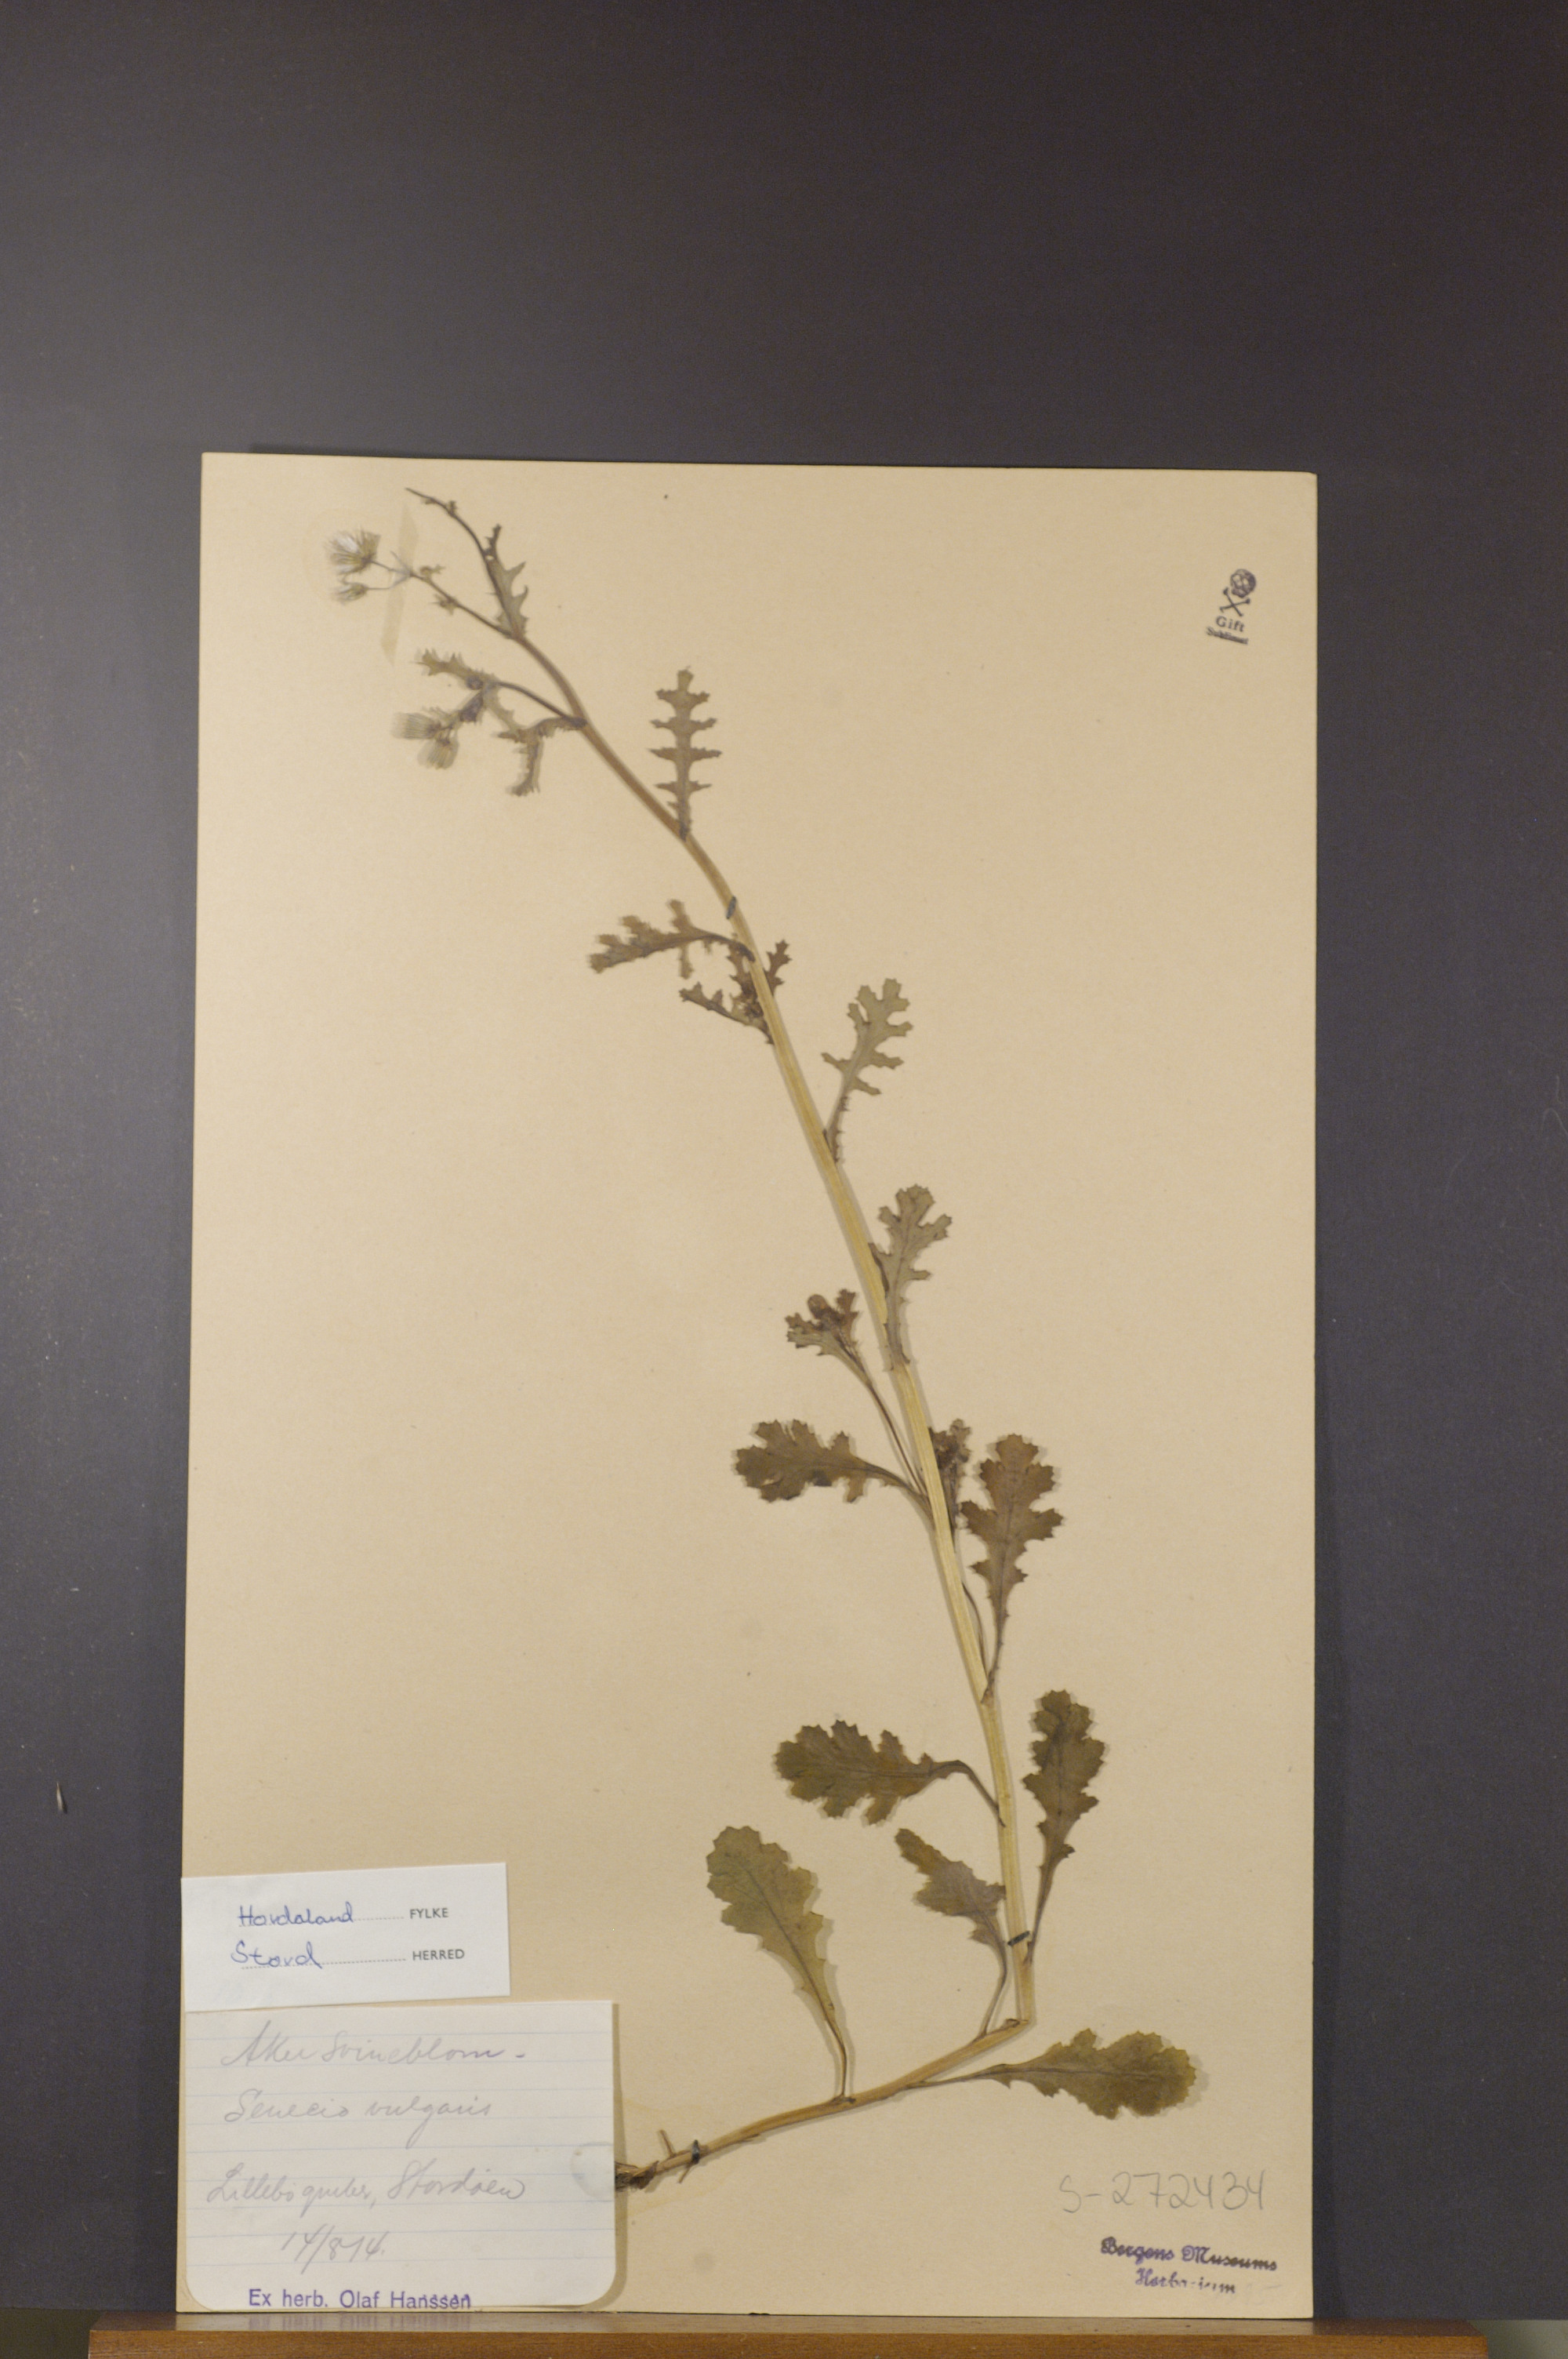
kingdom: Plantae
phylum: Tracheophyta
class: Magnoliopsida
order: Asterales
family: Asteraceae
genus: Senecio
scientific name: Senecio vulgaris
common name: Old-man-in-the-spring
